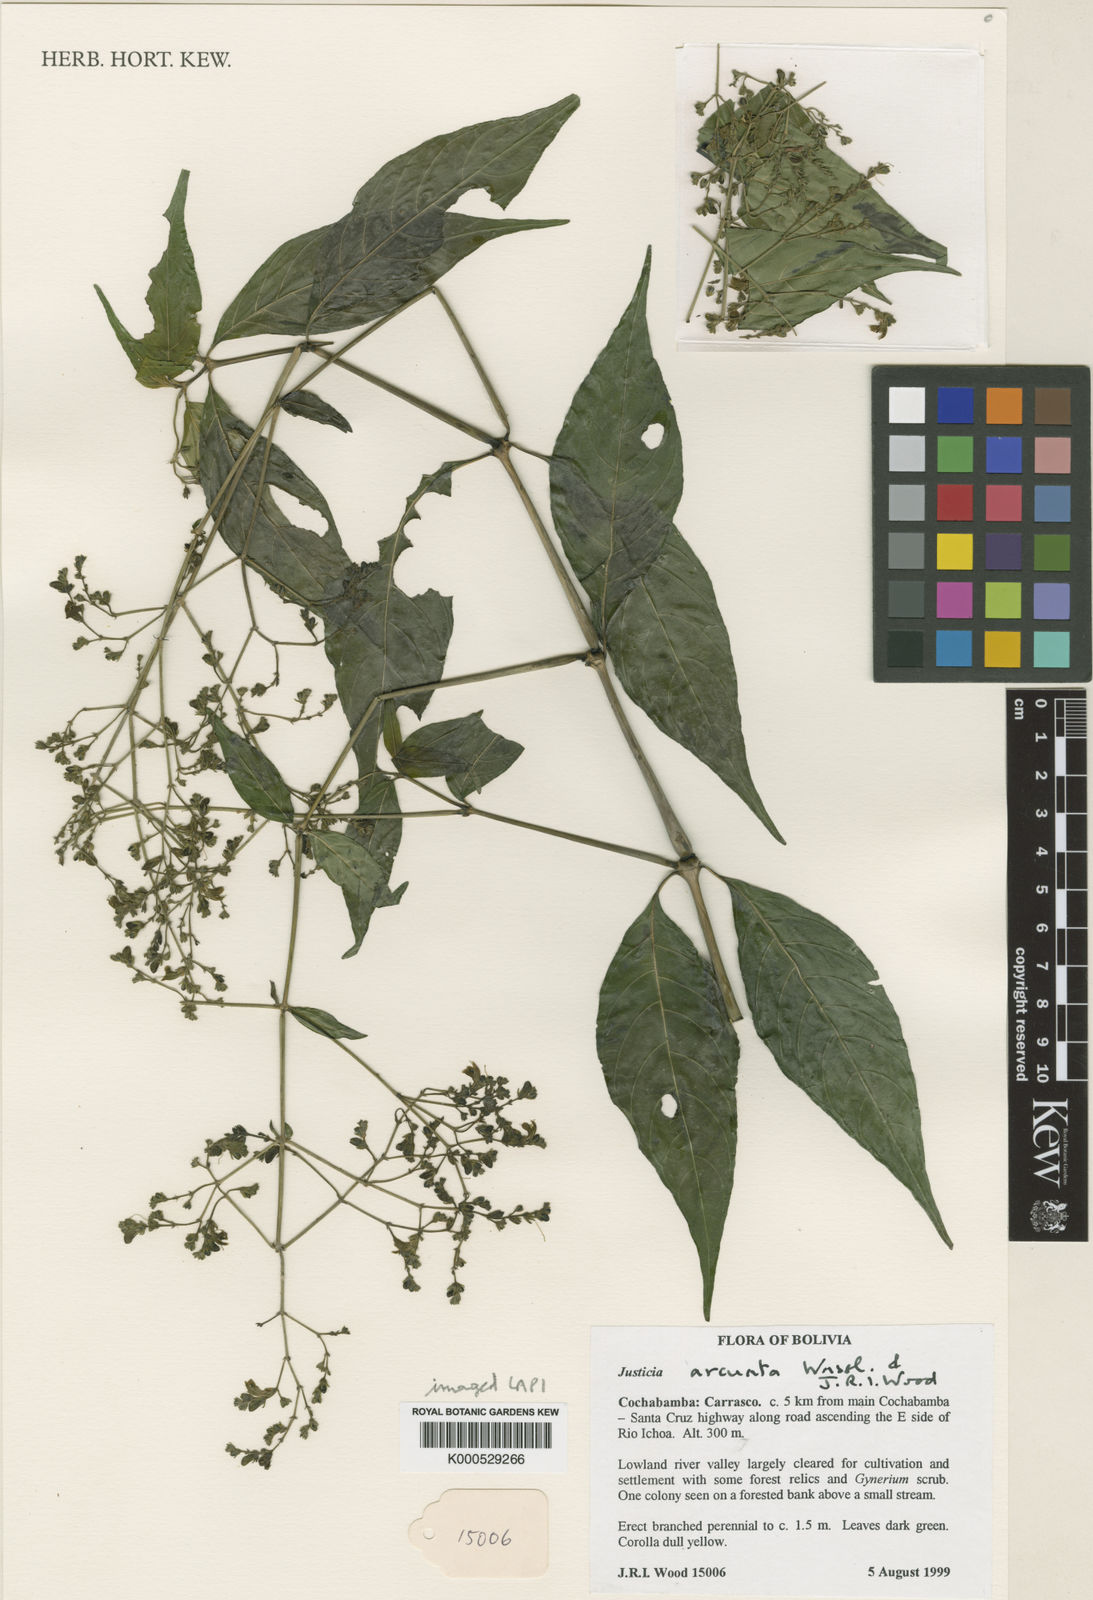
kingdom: Plantae
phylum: Tracheophyta
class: Magnoliopsida
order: Lamiales
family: Acanthaceae
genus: Justicia
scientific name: Justicia arcuata
